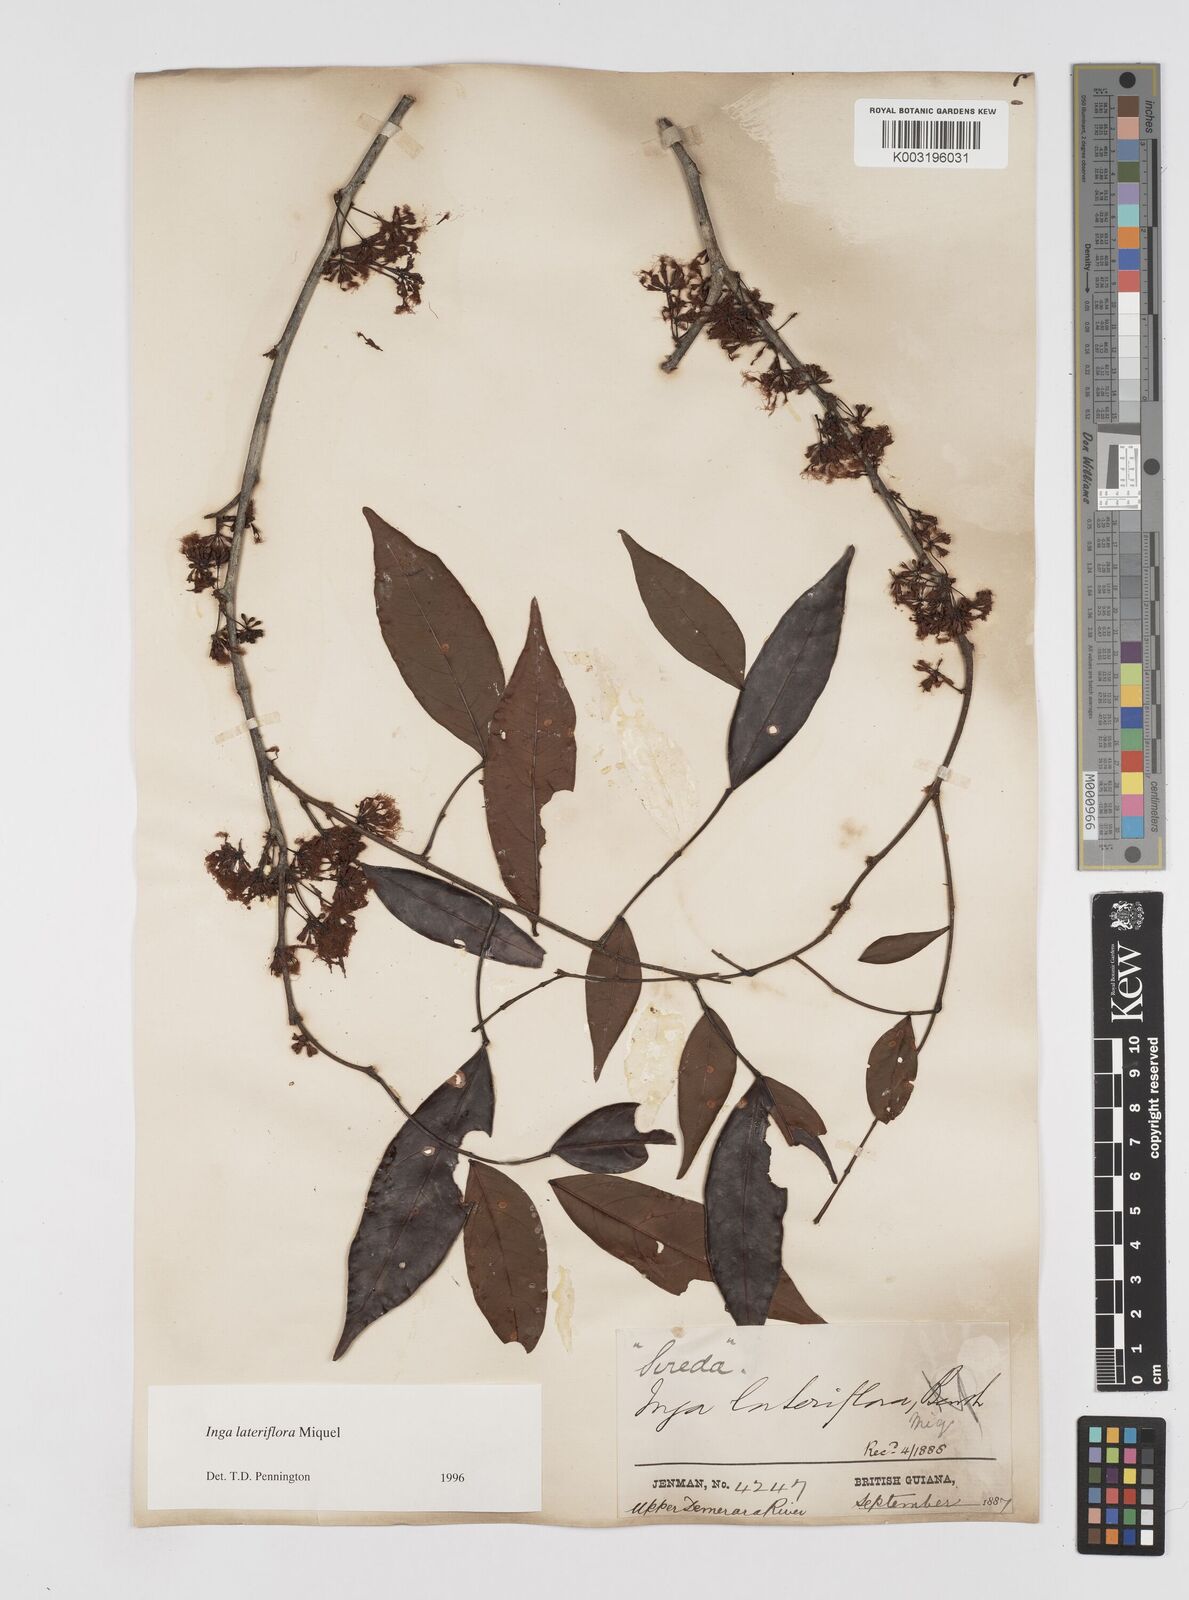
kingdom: Plantae
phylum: Tracheophyta
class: Magnoliopsida
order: Fabales
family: Fabaceae
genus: Inga
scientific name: Inga lateriflora
